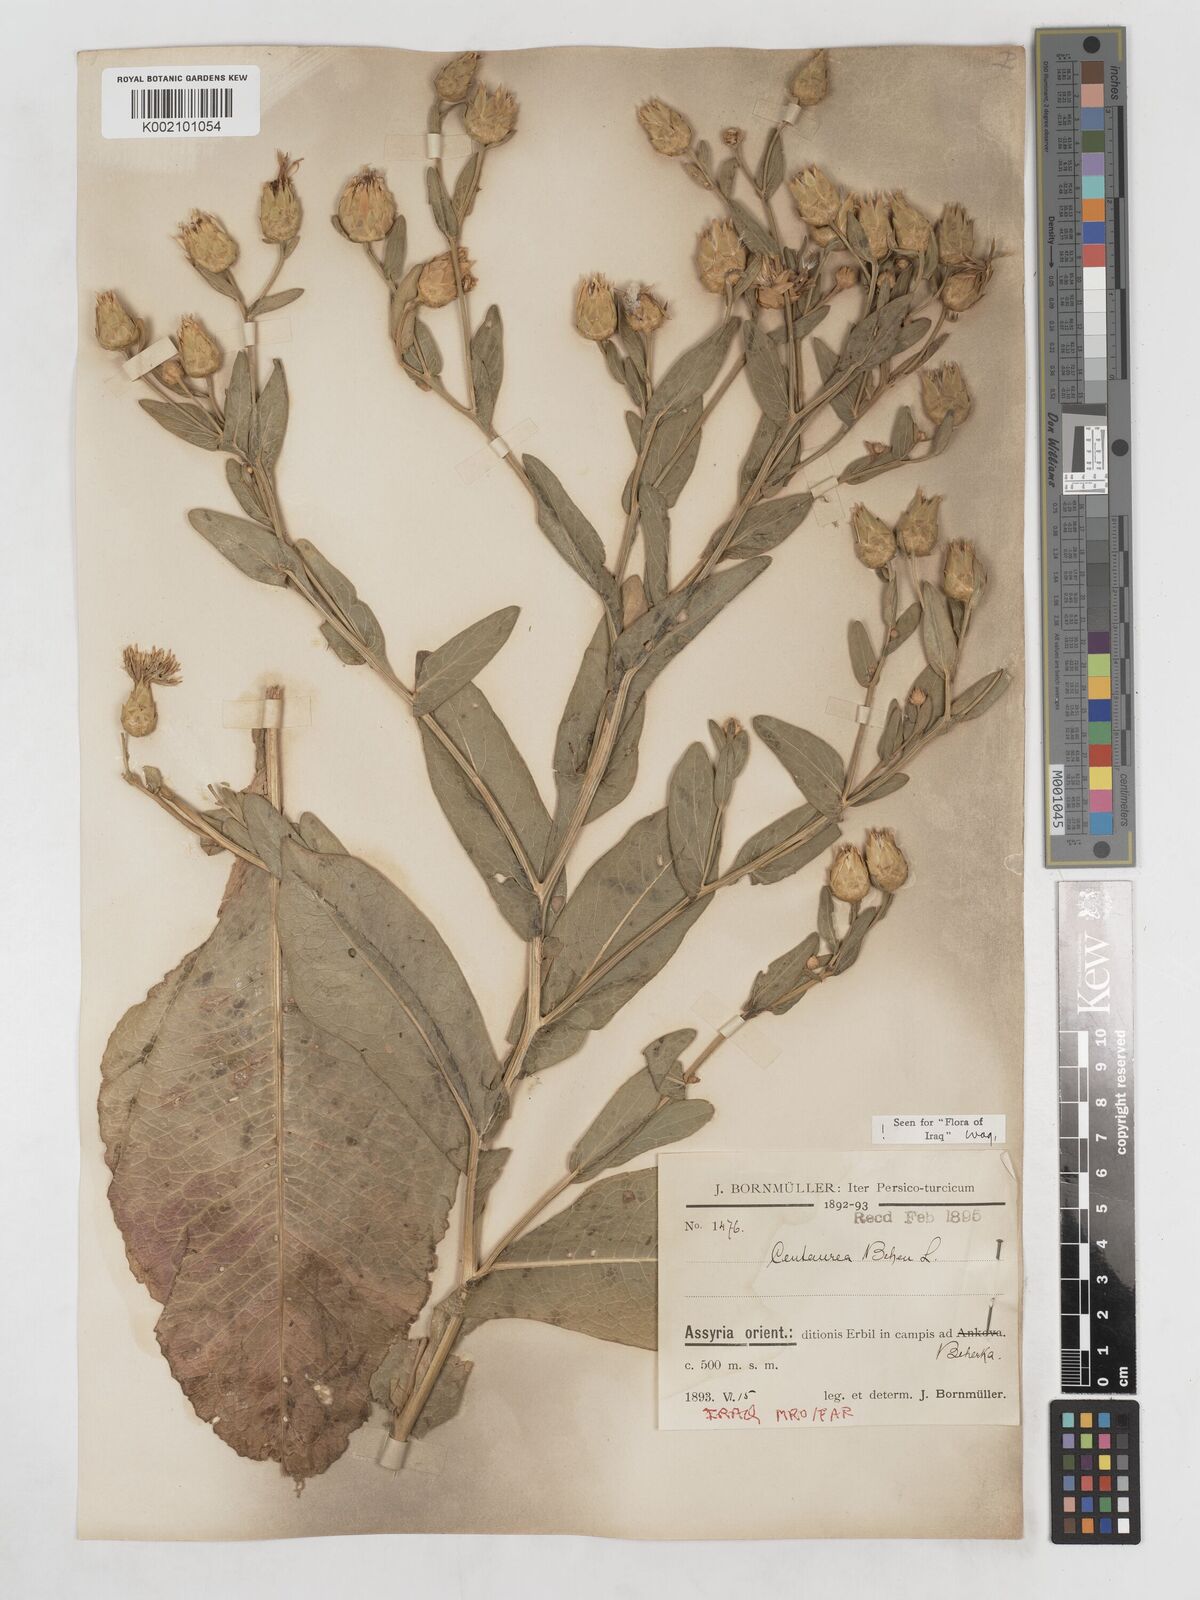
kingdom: Plantae
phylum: Tracheophyta
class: Magnoliopsida
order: Asterales
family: Asteraceae
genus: Centaurea
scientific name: Centaurea behen
